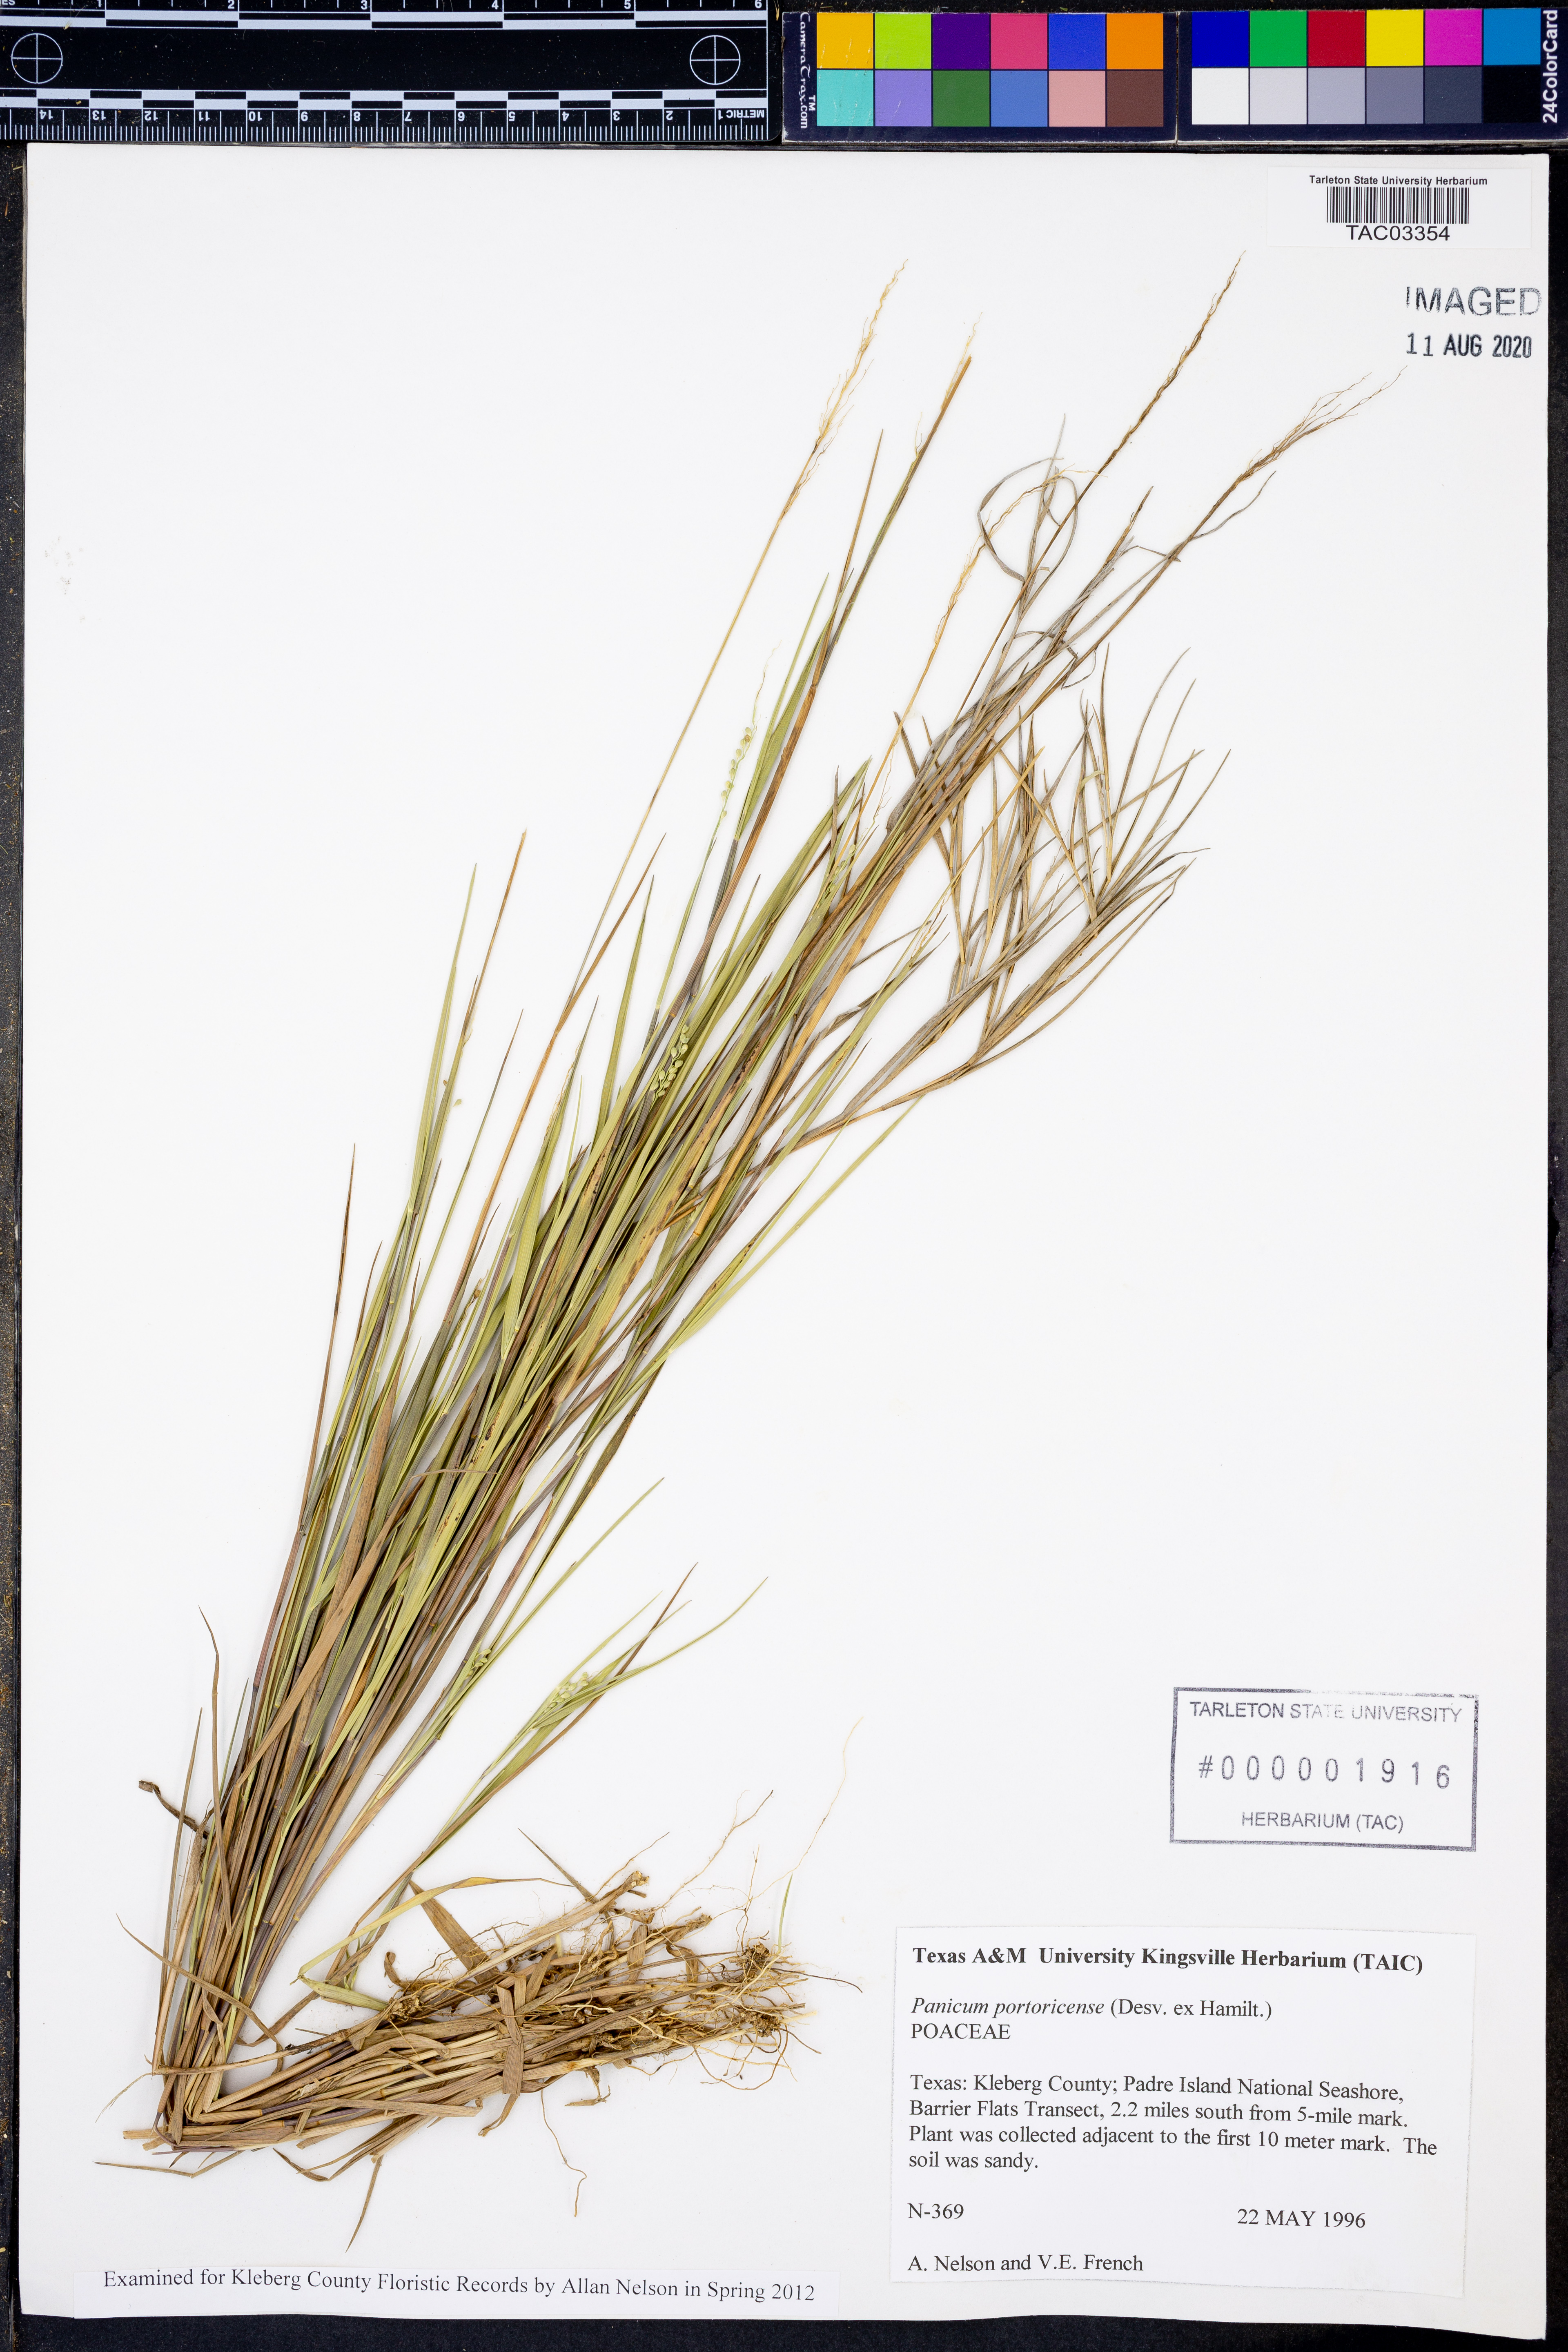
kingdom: Plantae
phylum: Tracheophyta
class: Liliopsida
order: Poales
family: Poaceae
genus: Dichanthelium
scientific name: Dichanthelium portoricense
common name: American panicgrass
